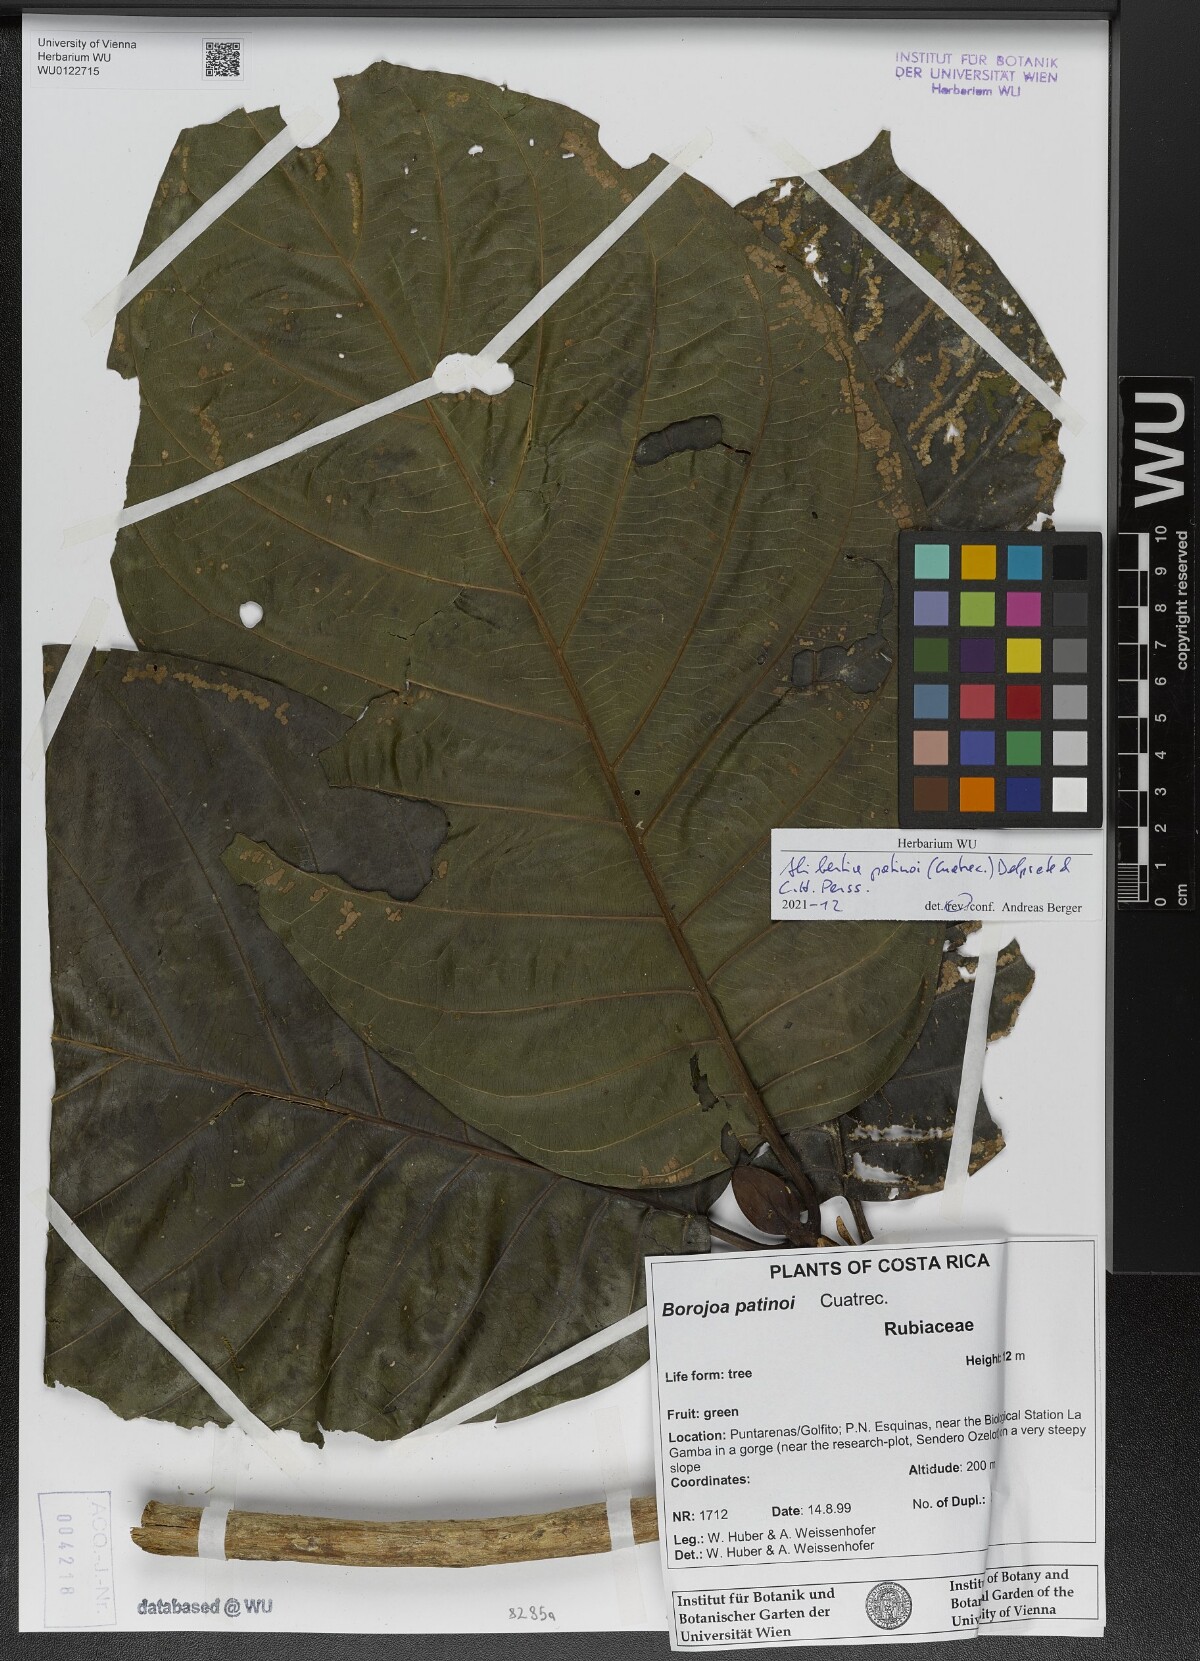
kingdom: Plantae
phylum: Tracheophyta
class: Magnoliopsida
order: Gentianales
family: Rubiaceae
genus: Alibertia
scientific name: Alibertia patinoi
